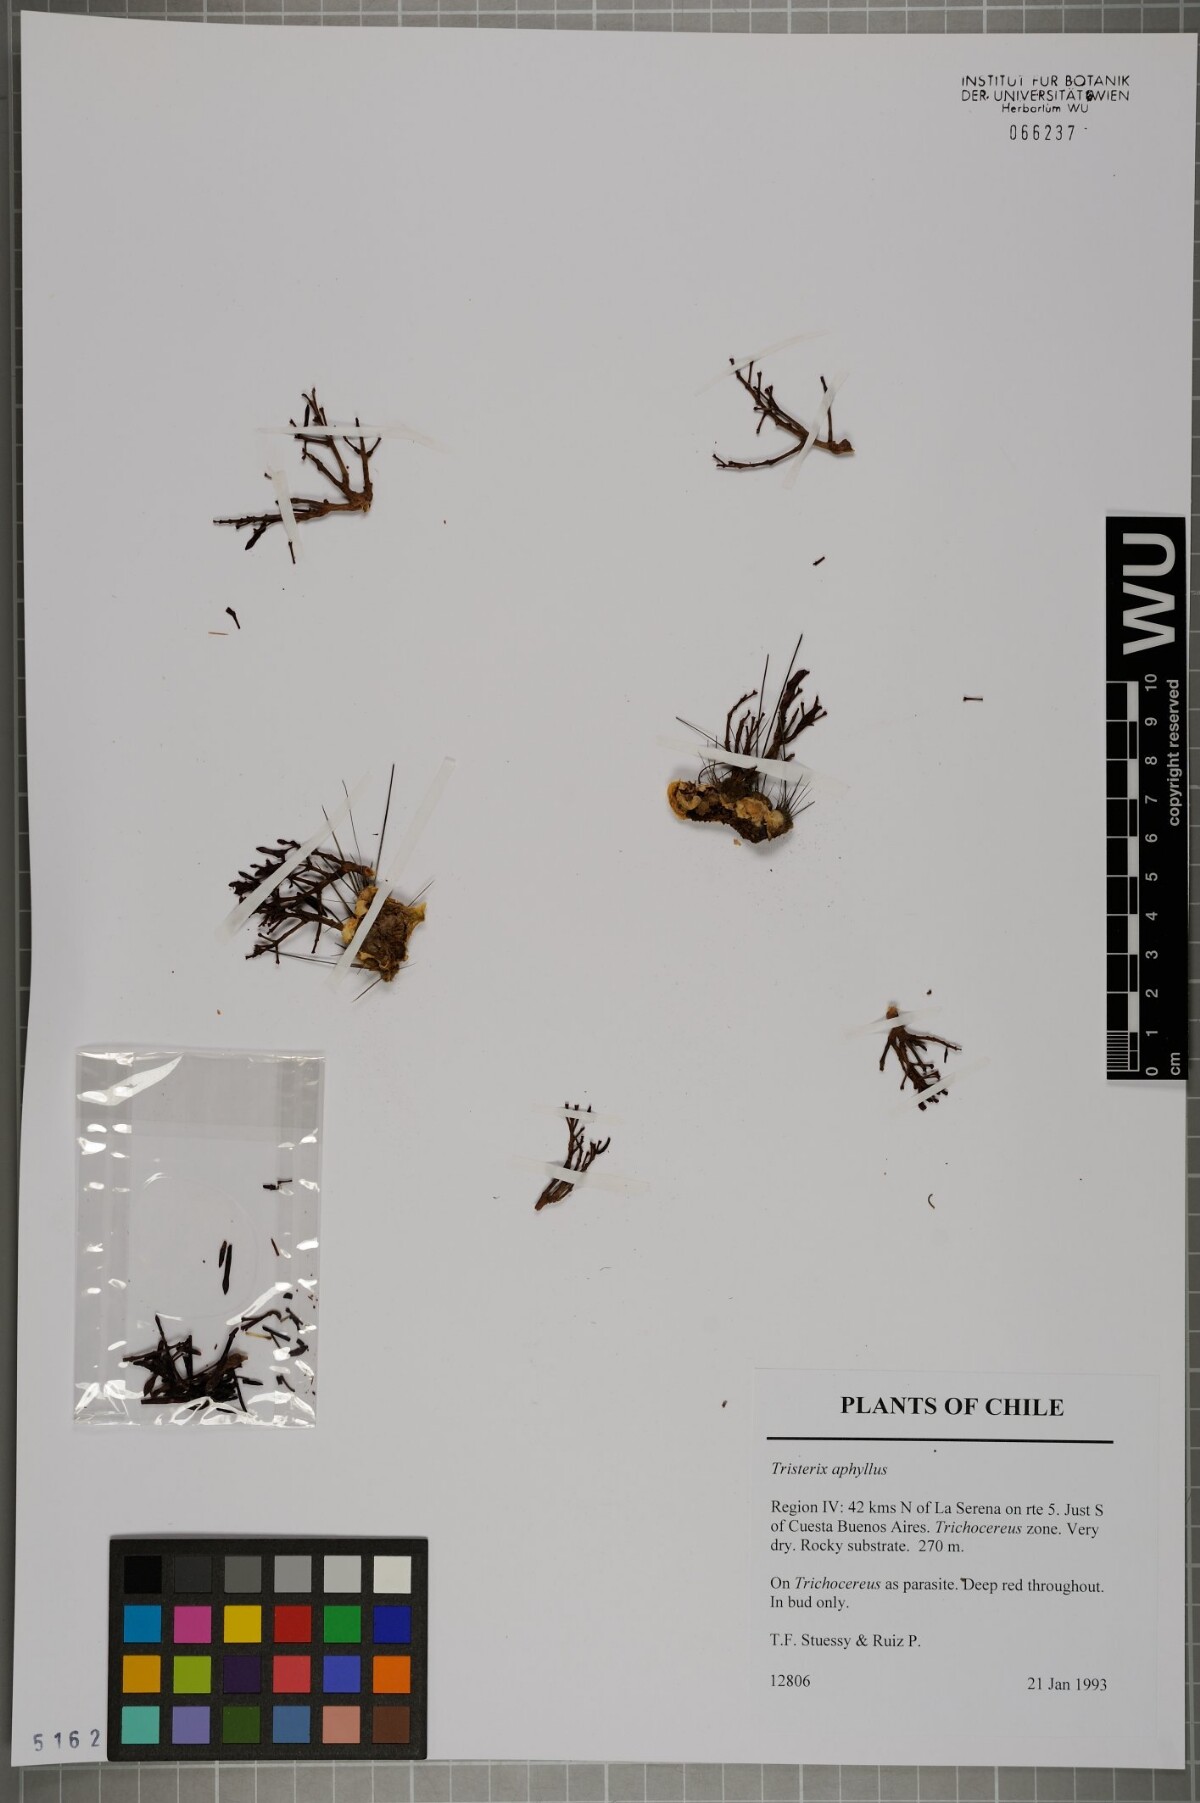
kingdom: Plantae
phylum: Tracheophyta
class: Magnoliopsida
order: Santalales
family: Loranthaceae
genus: Tristerix
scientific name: Tristerix aphyllus
